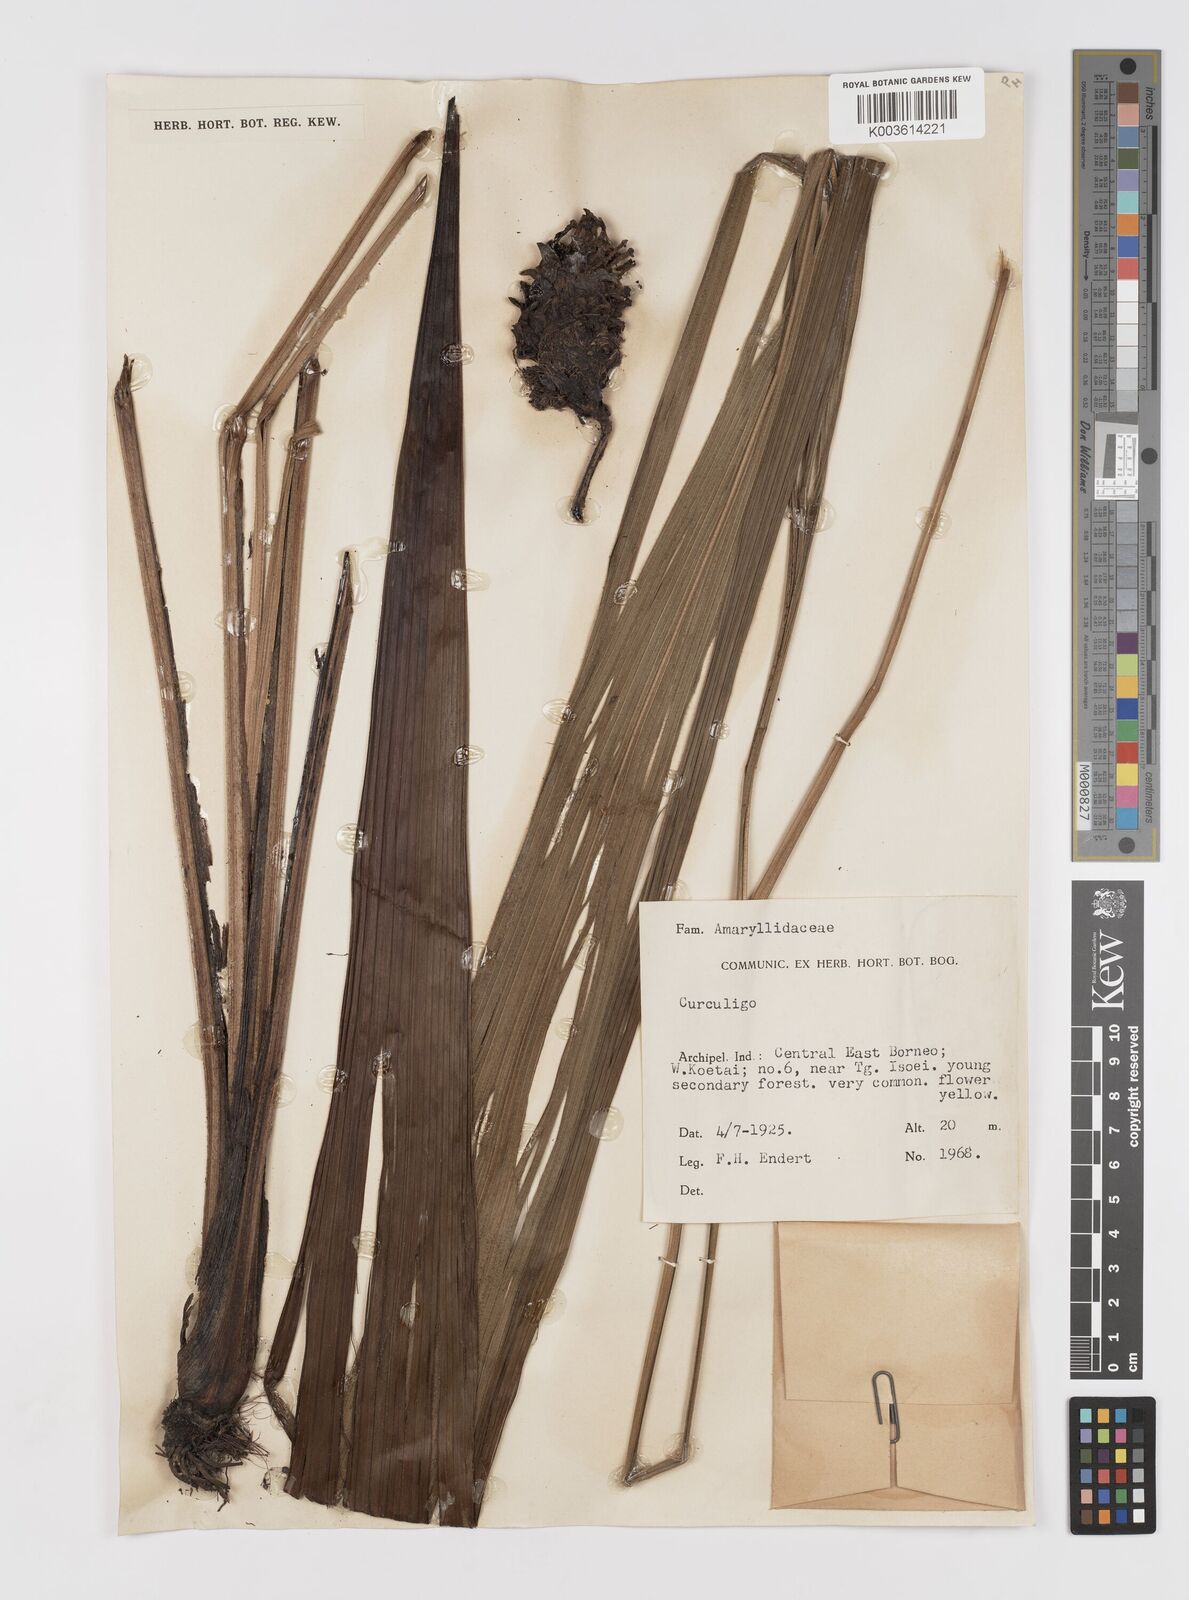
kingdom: Plantae
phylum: Tracheophyta
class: Liliopsida
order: Asparagales
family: Hypoxidaceae
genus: Curculigo
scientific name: Curculigo
